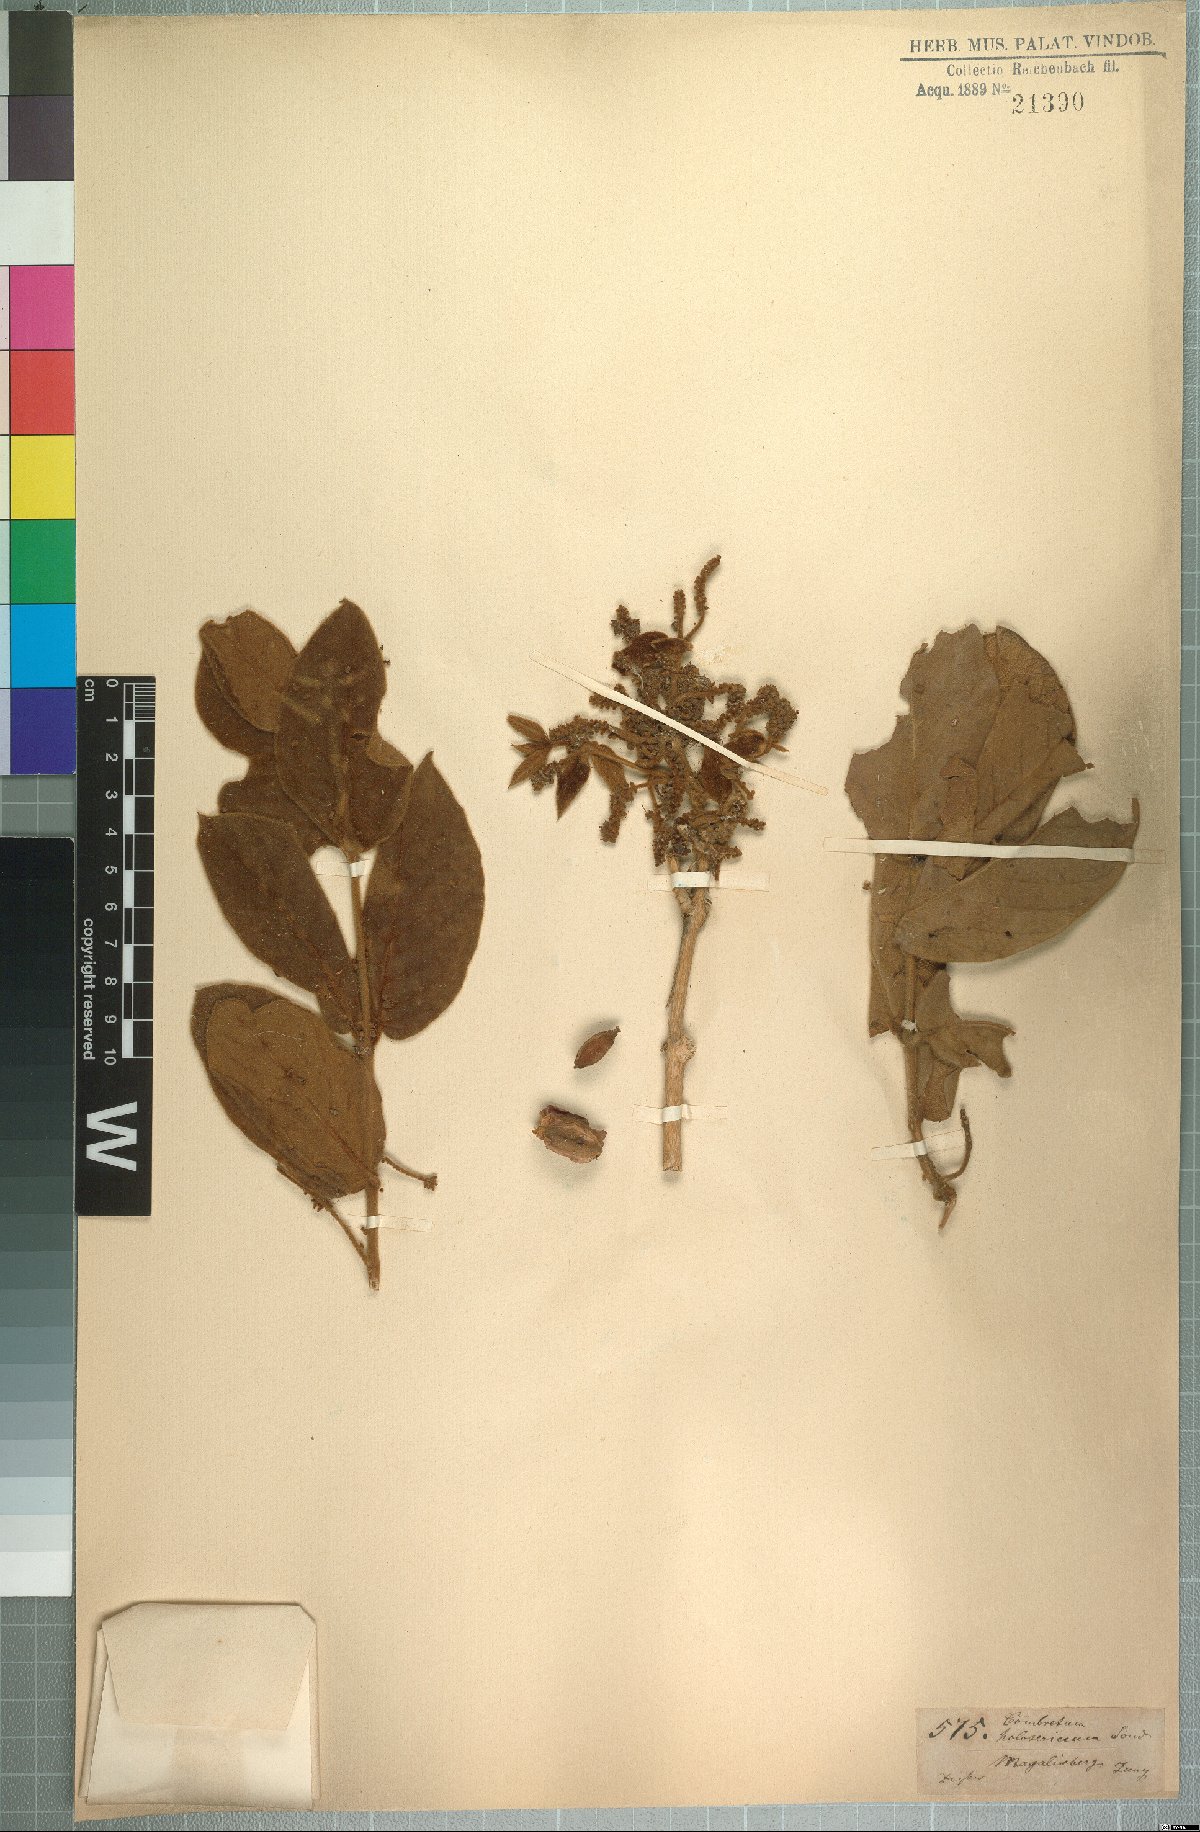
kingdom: Plantae
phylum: Tracheophyta
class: Magnoliopsida
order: Myrtales
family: Combretaceae
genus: Combretum
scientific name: Combretum molle
